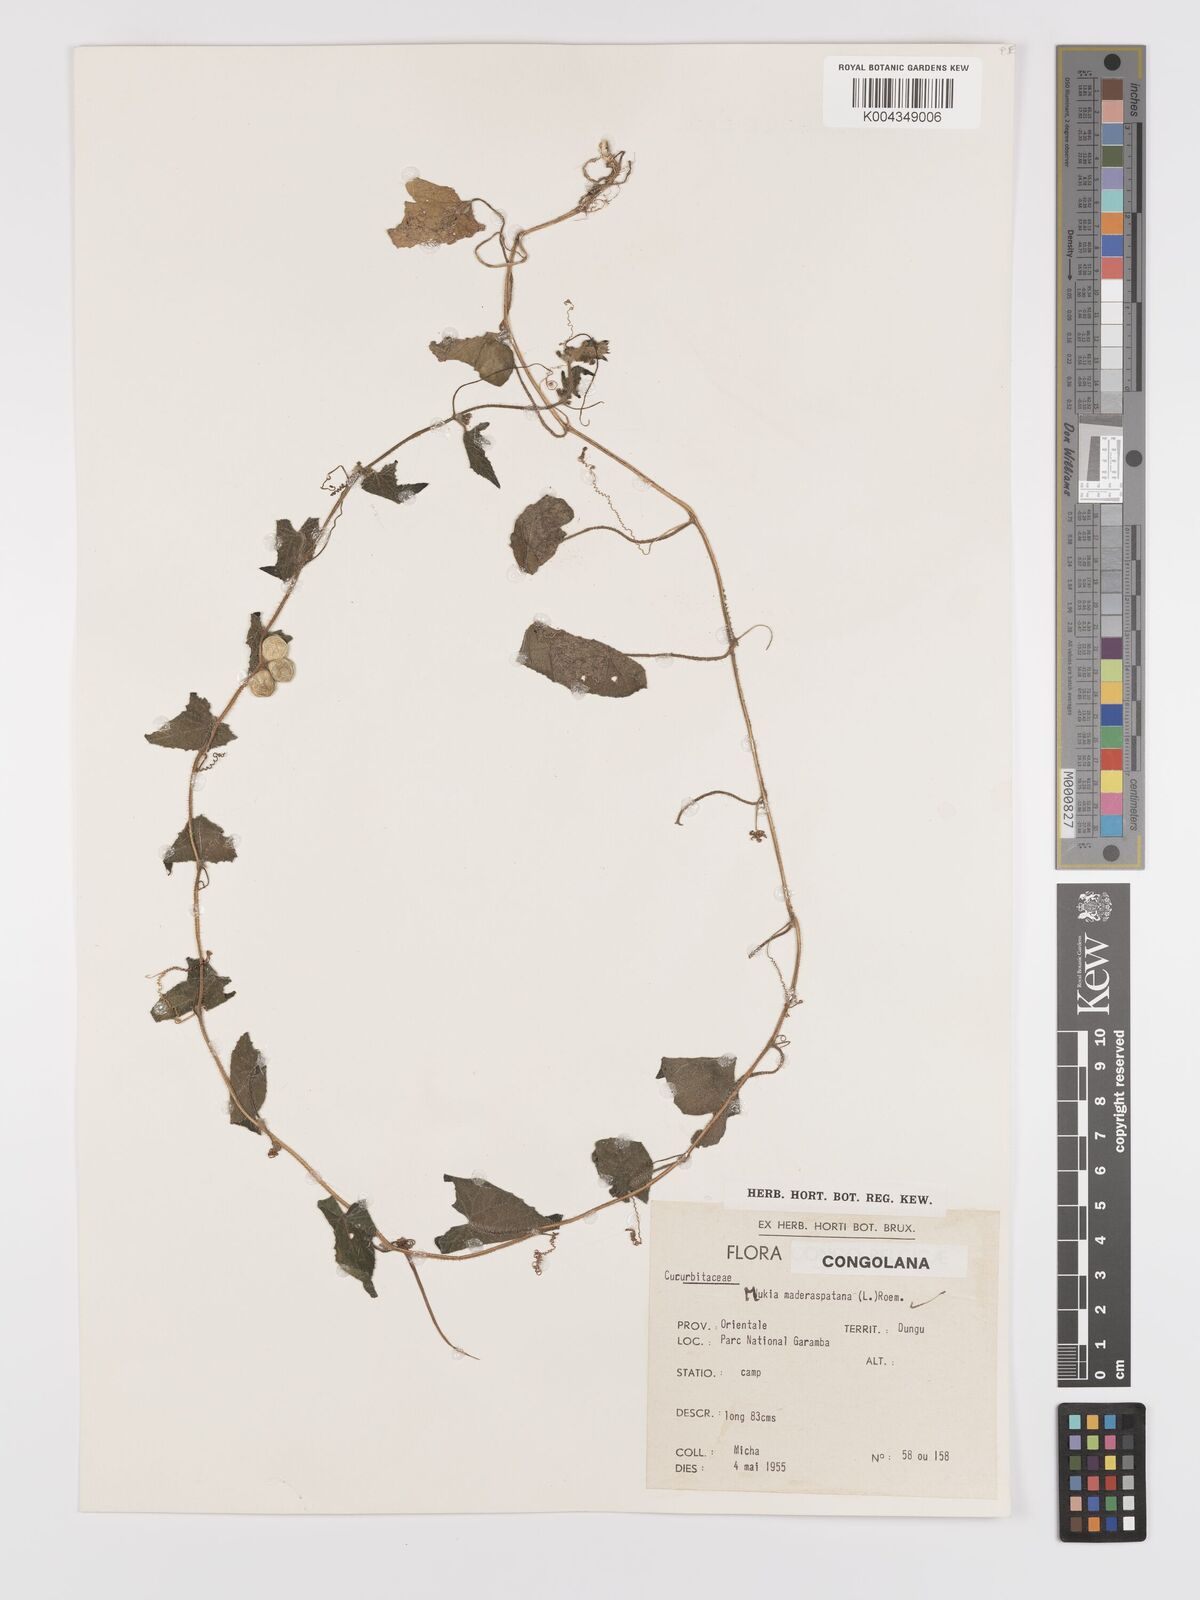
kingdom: Plantae
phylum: Tracheophyta
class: Magnoliopsida
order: Cucurbitales
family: Cucurbitaceae
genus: Cucumis
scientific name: Cucumis maderaspatanus
